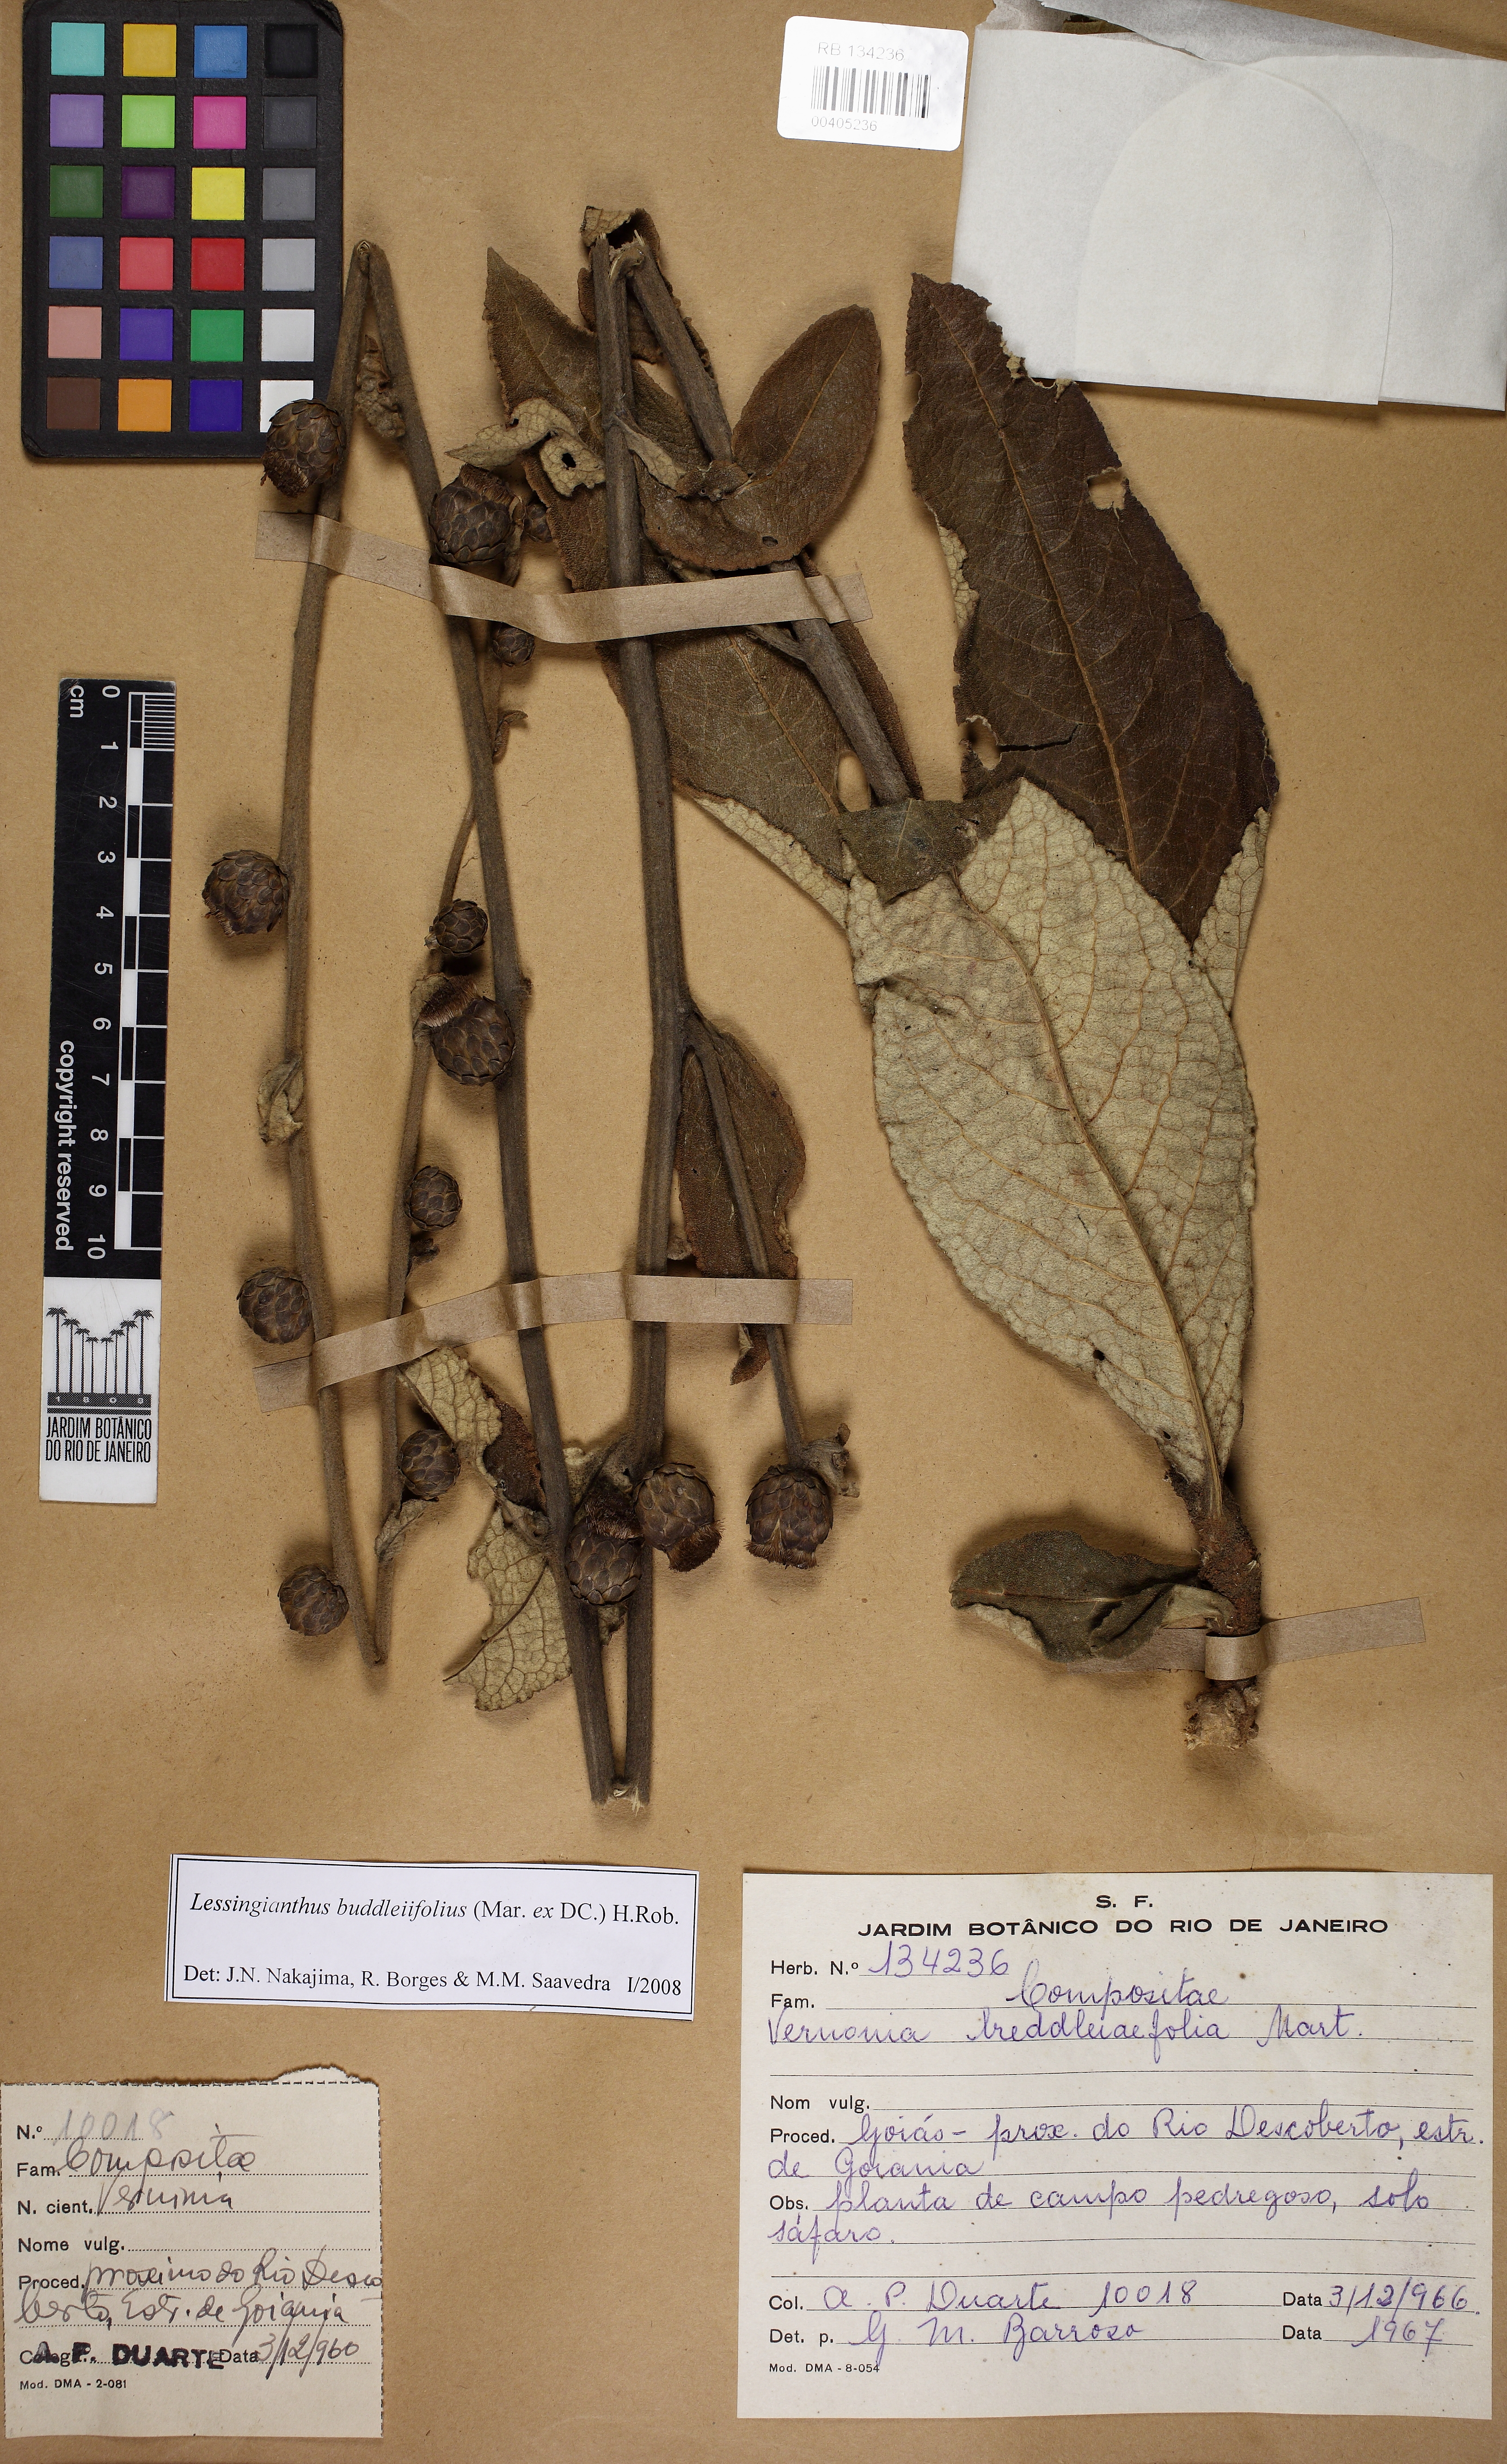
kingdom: Plantae
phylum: Tracheophyta
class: Magnoliopsida
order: Asterales
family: Asteraceae
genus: Lessingianthus
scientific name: Lessingianthus buddlejifolius
